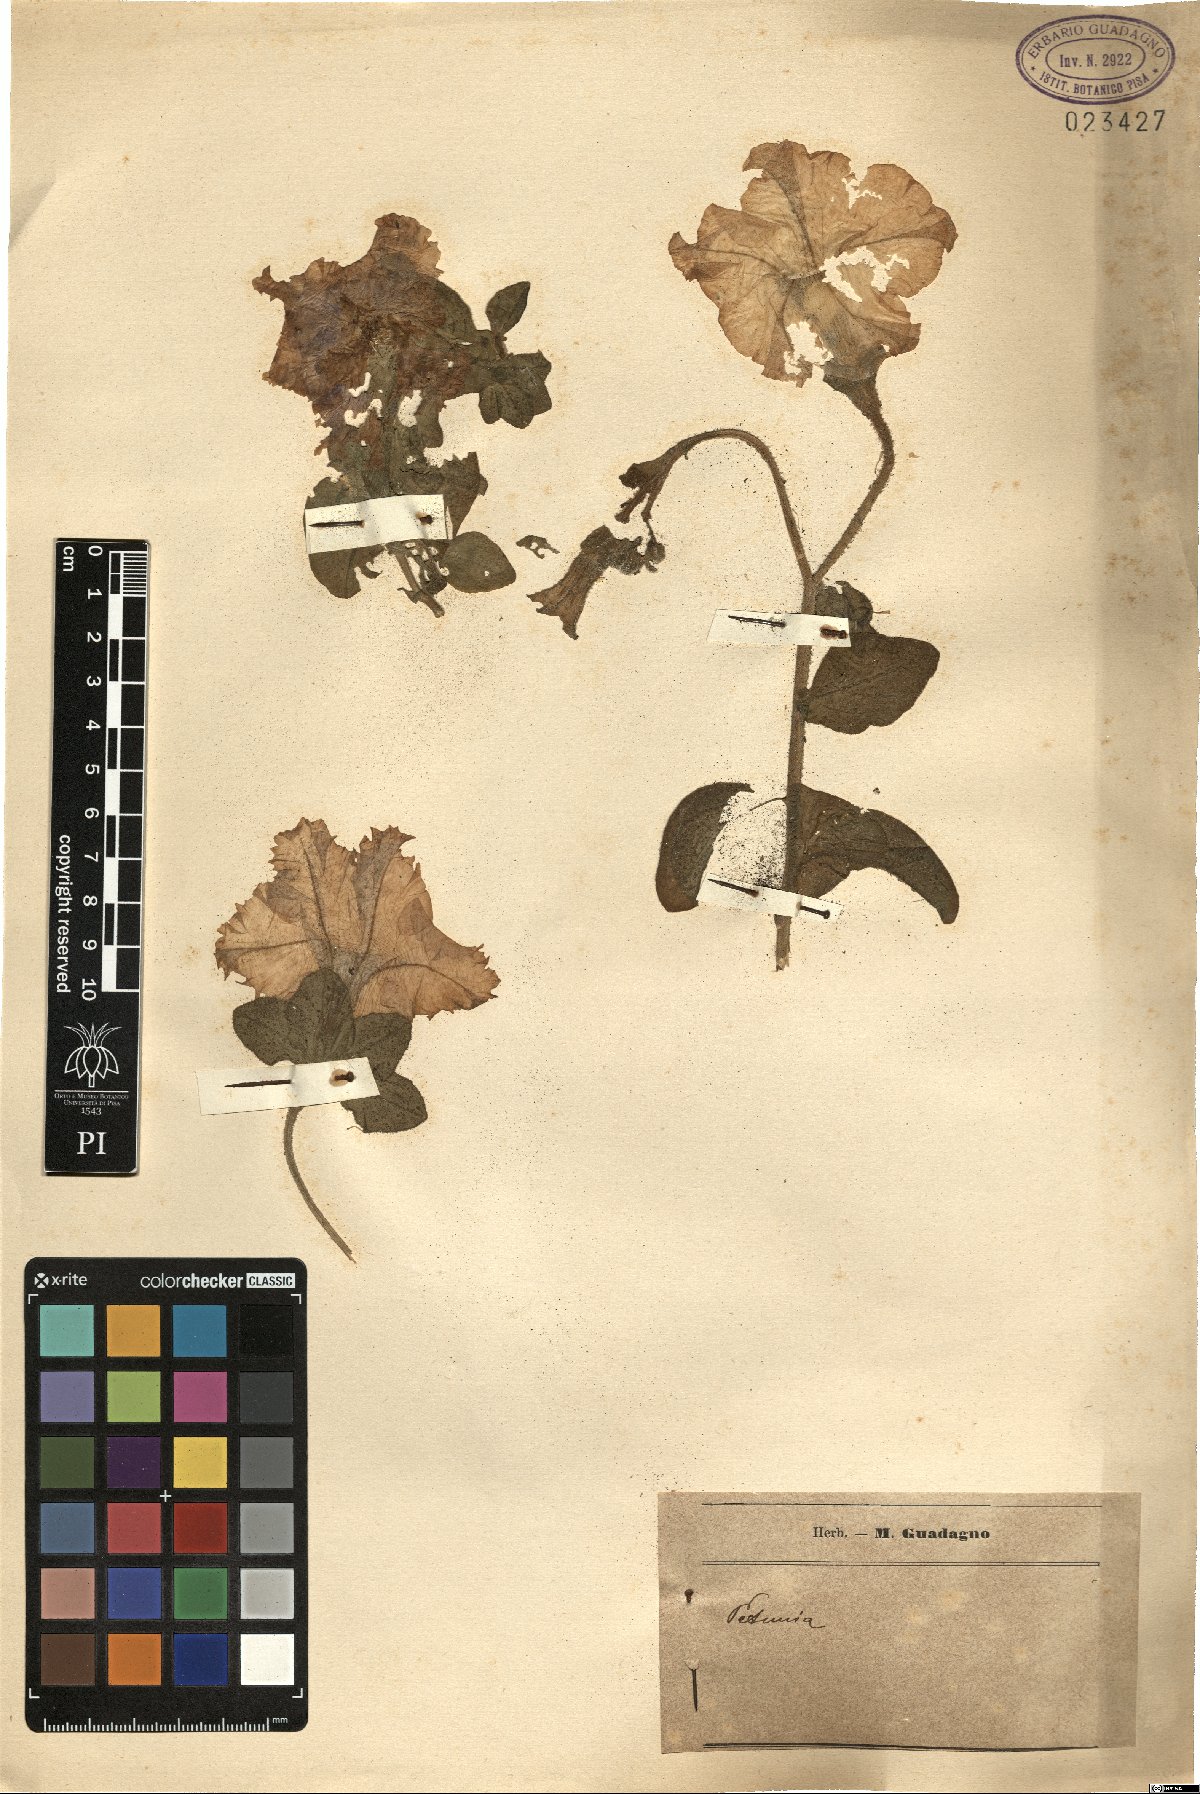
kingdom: Plantae
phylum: Tracheophyta
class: Magnoliopsida
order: Solanales
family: Solanaceae
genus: Petunia
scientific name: Petunia
